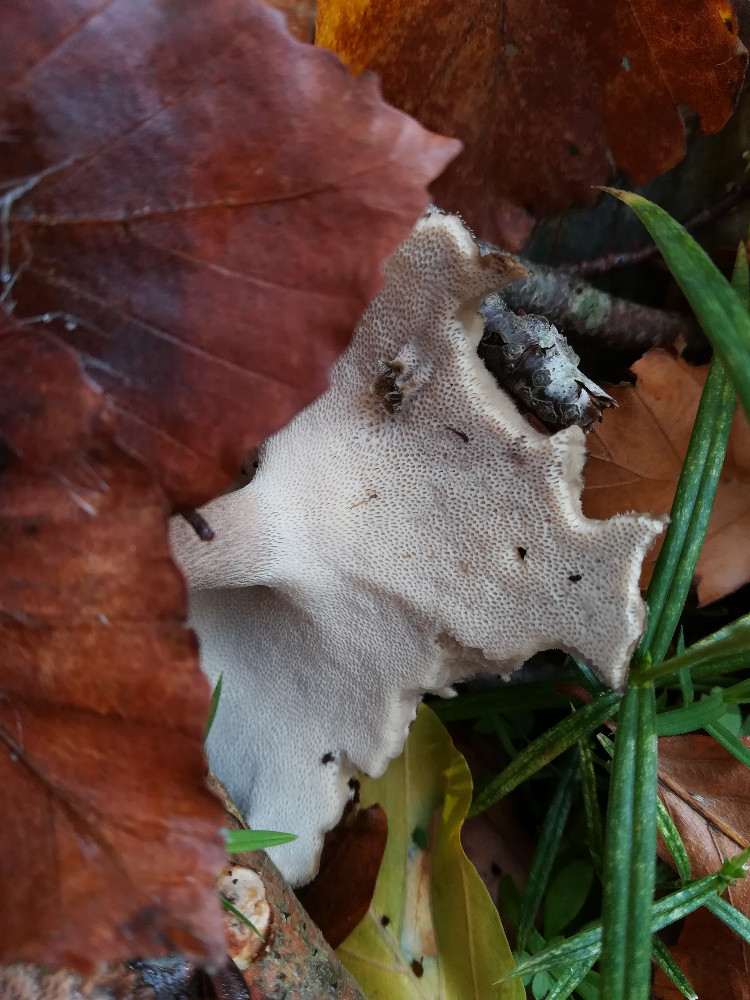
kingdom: Fungi
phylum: Basidiomycota
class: Agaricomycetes
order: Polyporales
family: Polyporaceae
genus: Lentinus
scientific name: Lentinus brumalis
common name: vinter-stilkporesvamp
